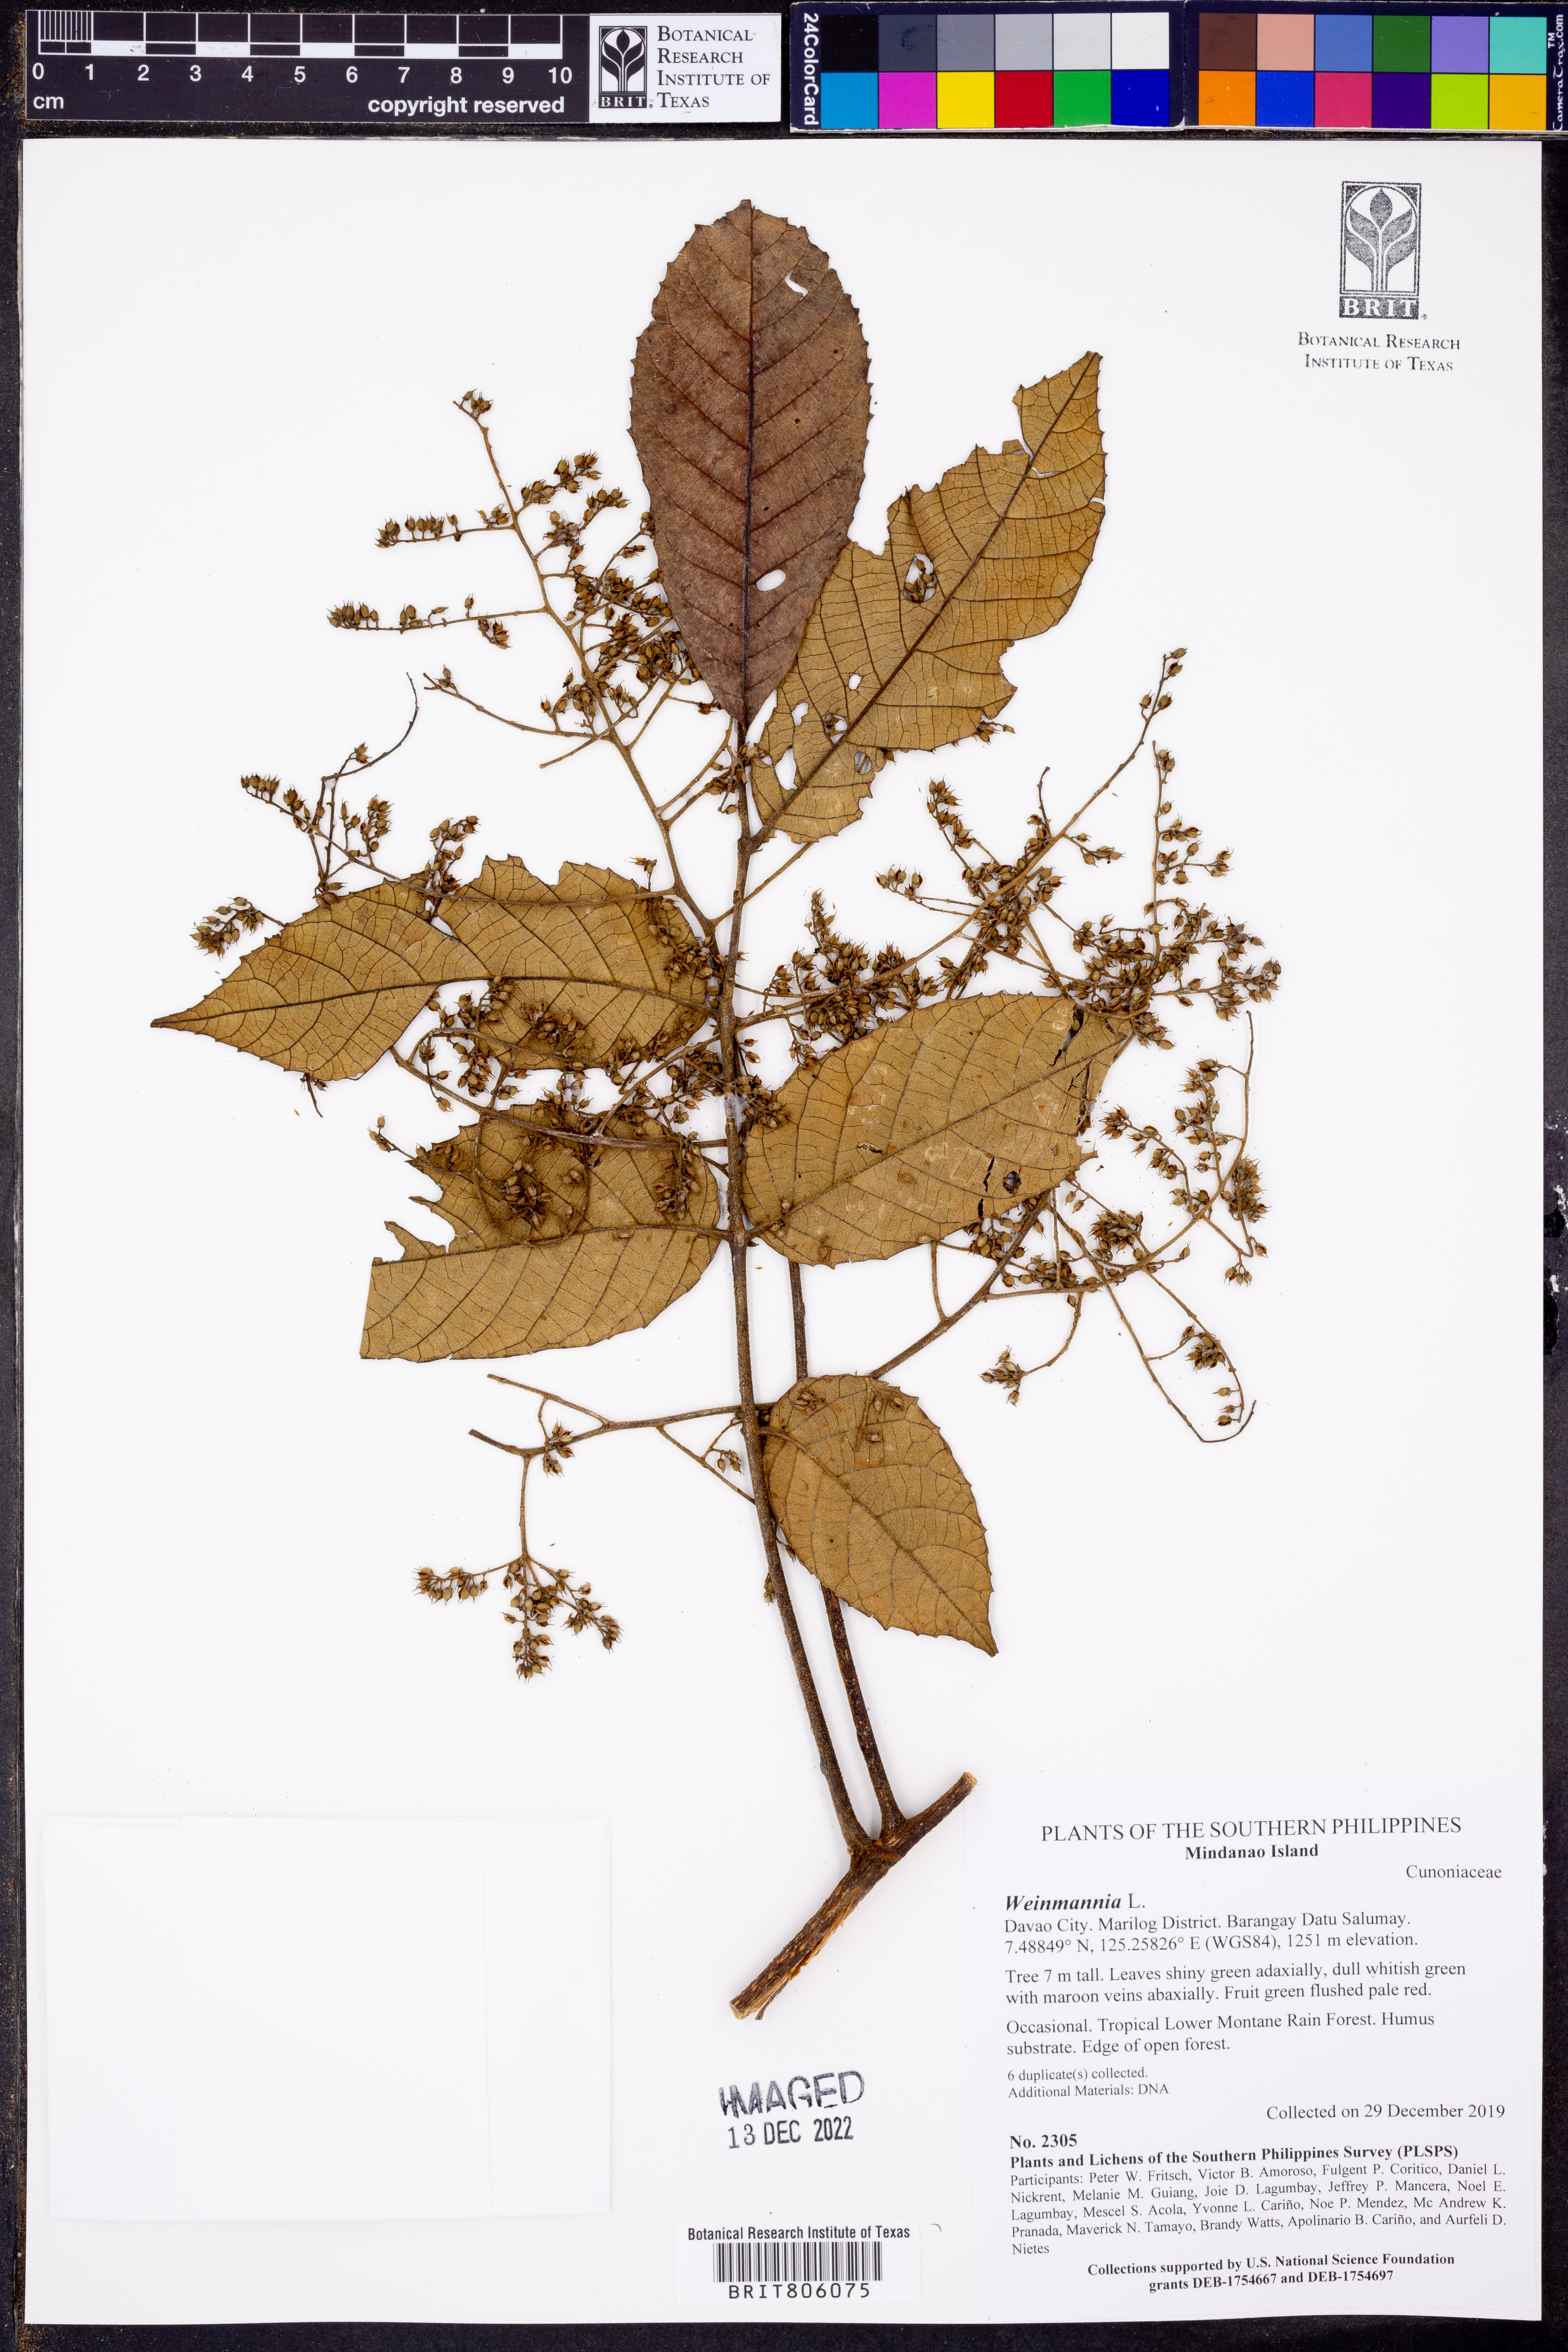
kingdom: Plantae
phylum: Tracheophyta
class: Magnoliopsida
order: Oxalidales
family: Cunoniaceae
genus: Weinmannia
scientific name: Weinmannia
